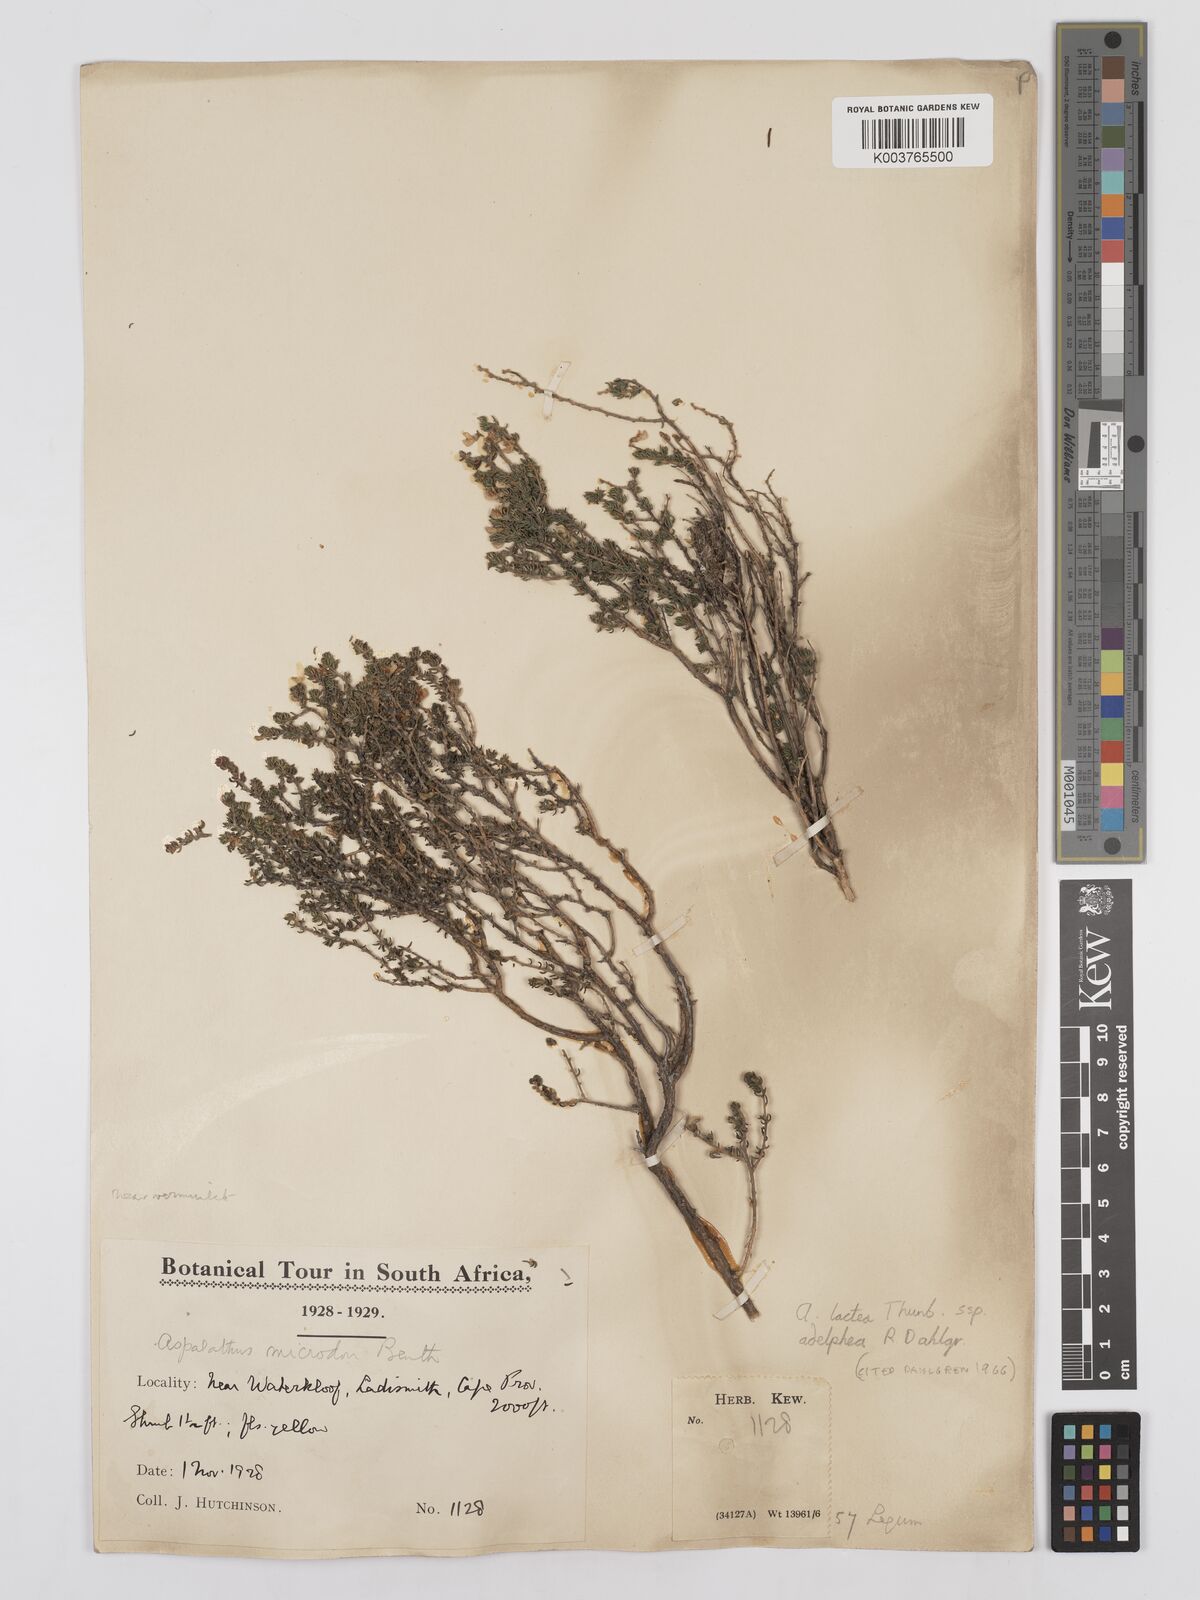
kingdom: Plantae
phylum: Tracheophyta
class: Magnoliopsida
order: Fabales
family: Fabaceae
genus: Aspalathus
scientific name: Aspalathus lactea
